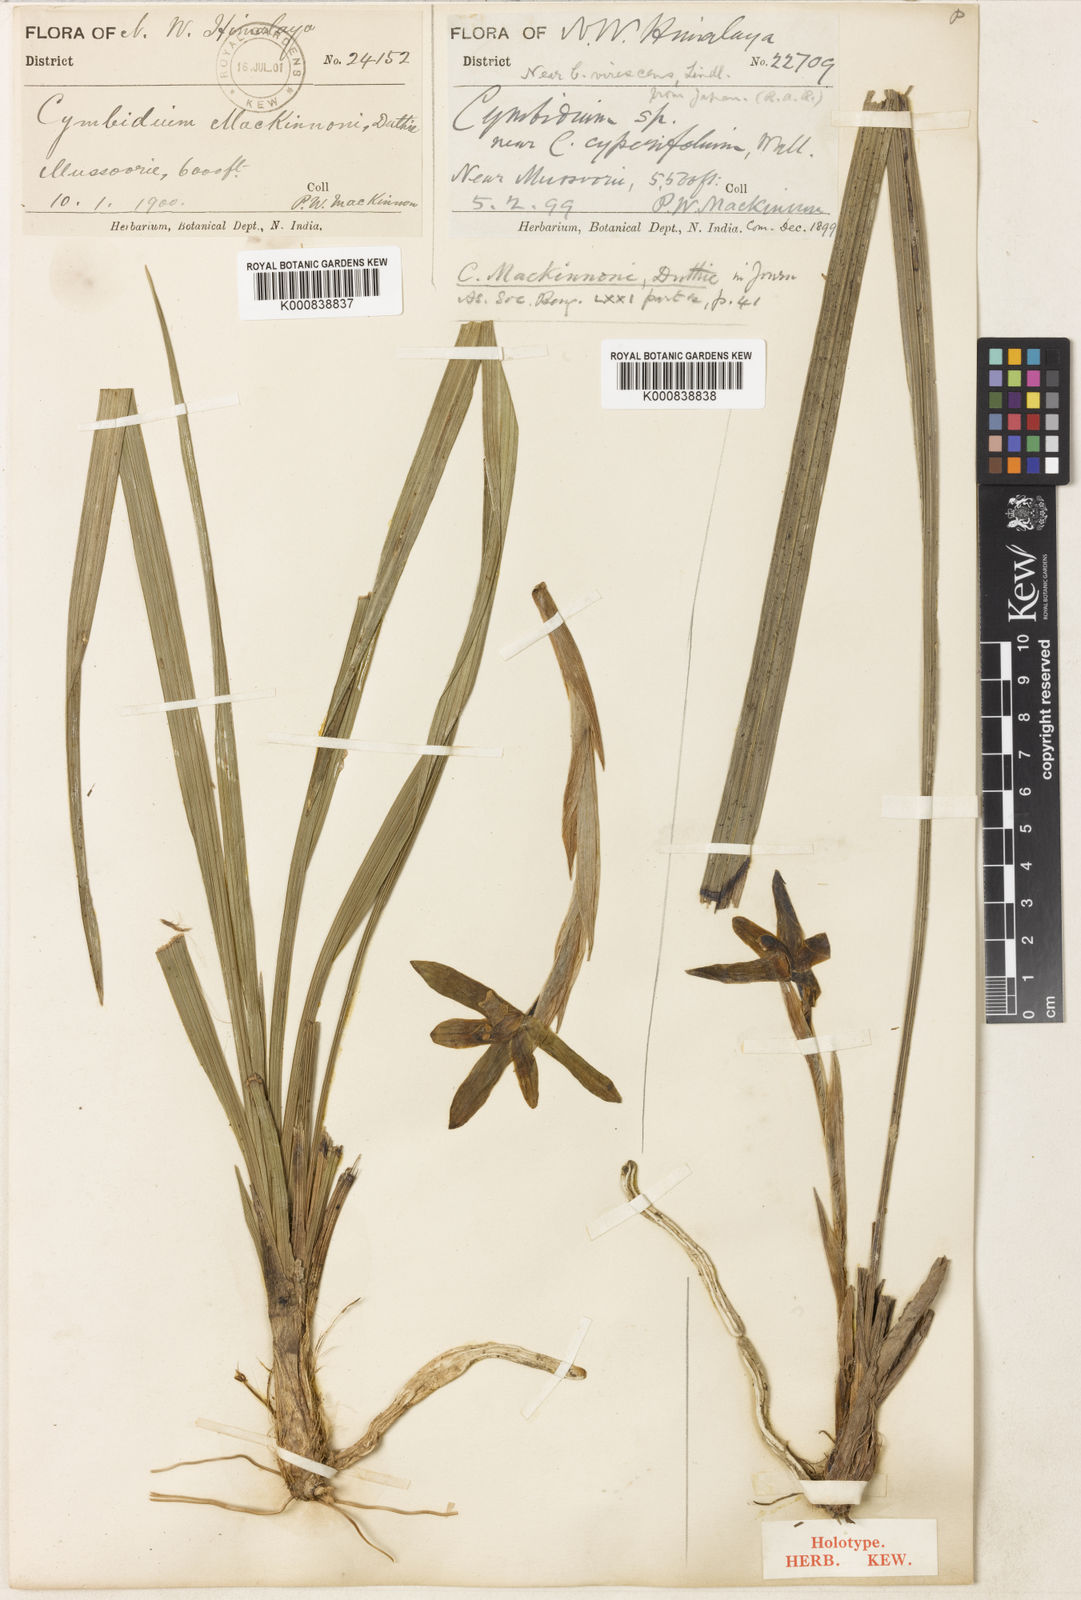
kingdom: Plantae
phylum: Tracheophyta
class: Liliopsida
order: Asparagales
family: Orchidaceae
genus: Cymbidium
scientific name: Cymbidium goeringii
